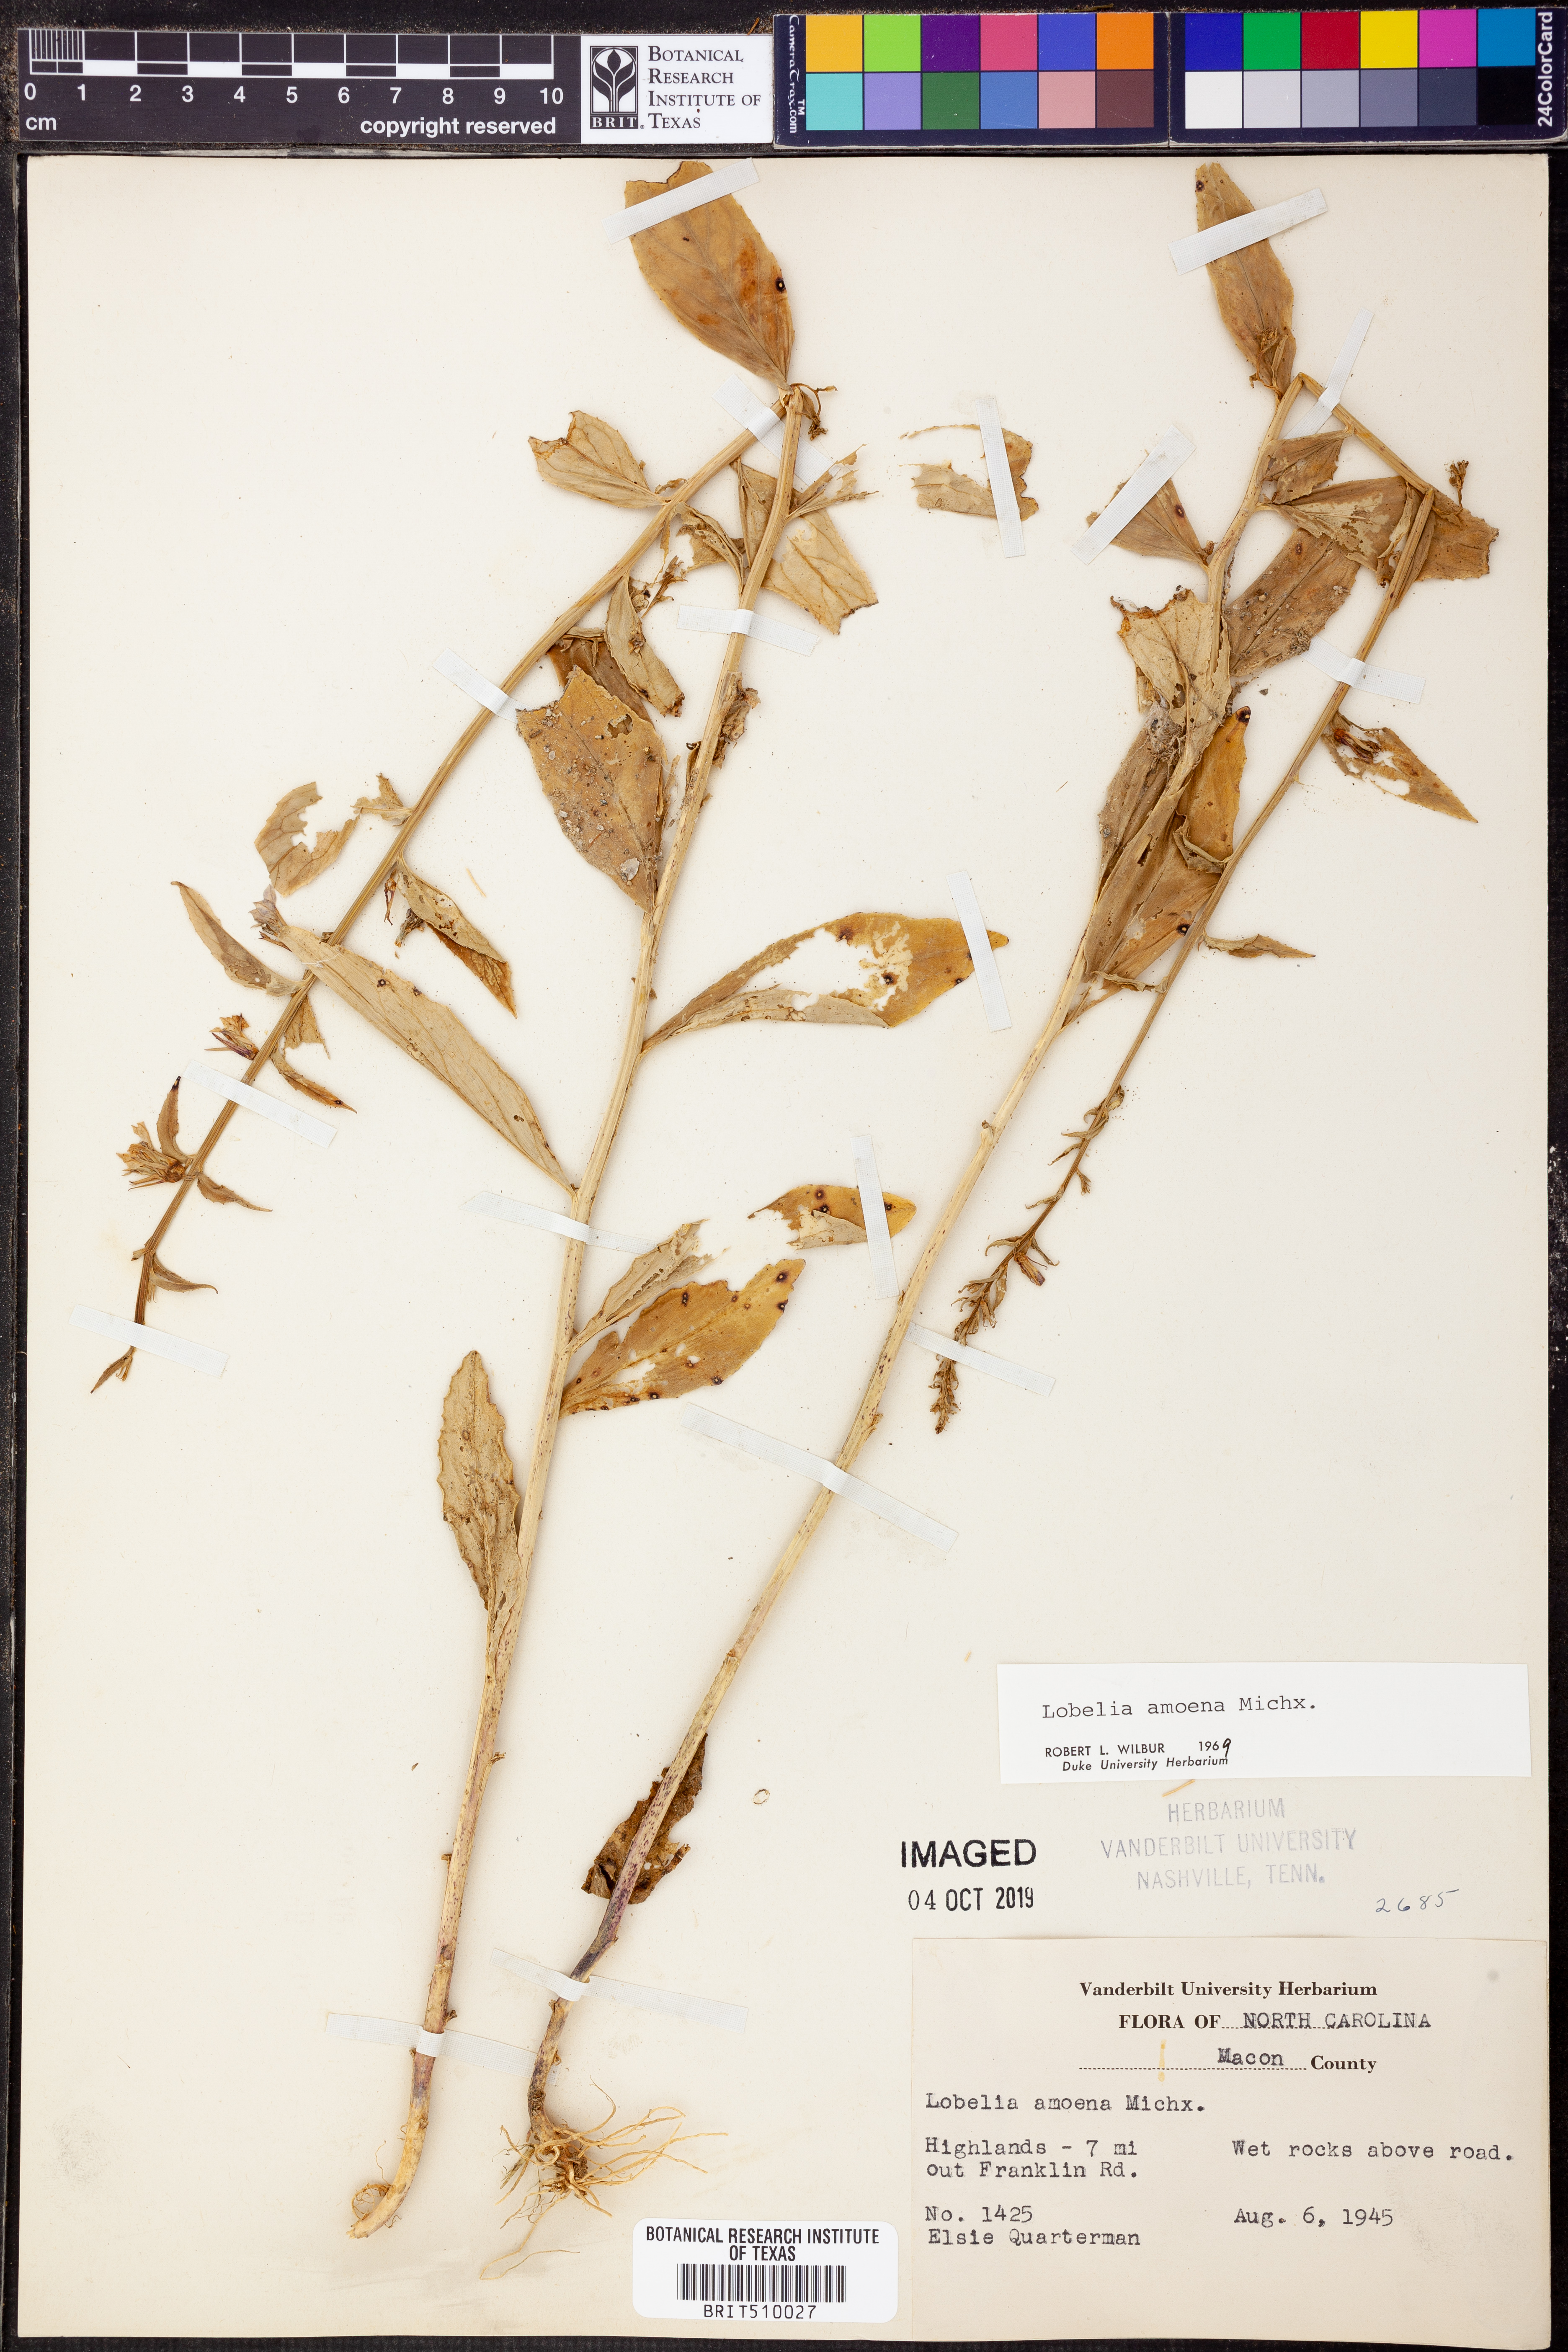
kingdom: Plantae
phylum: Tracheophyta
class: Magnoliopsida
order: Asterales
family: Campanulaceae
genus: Lobelia
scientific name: Lobelia amoena
